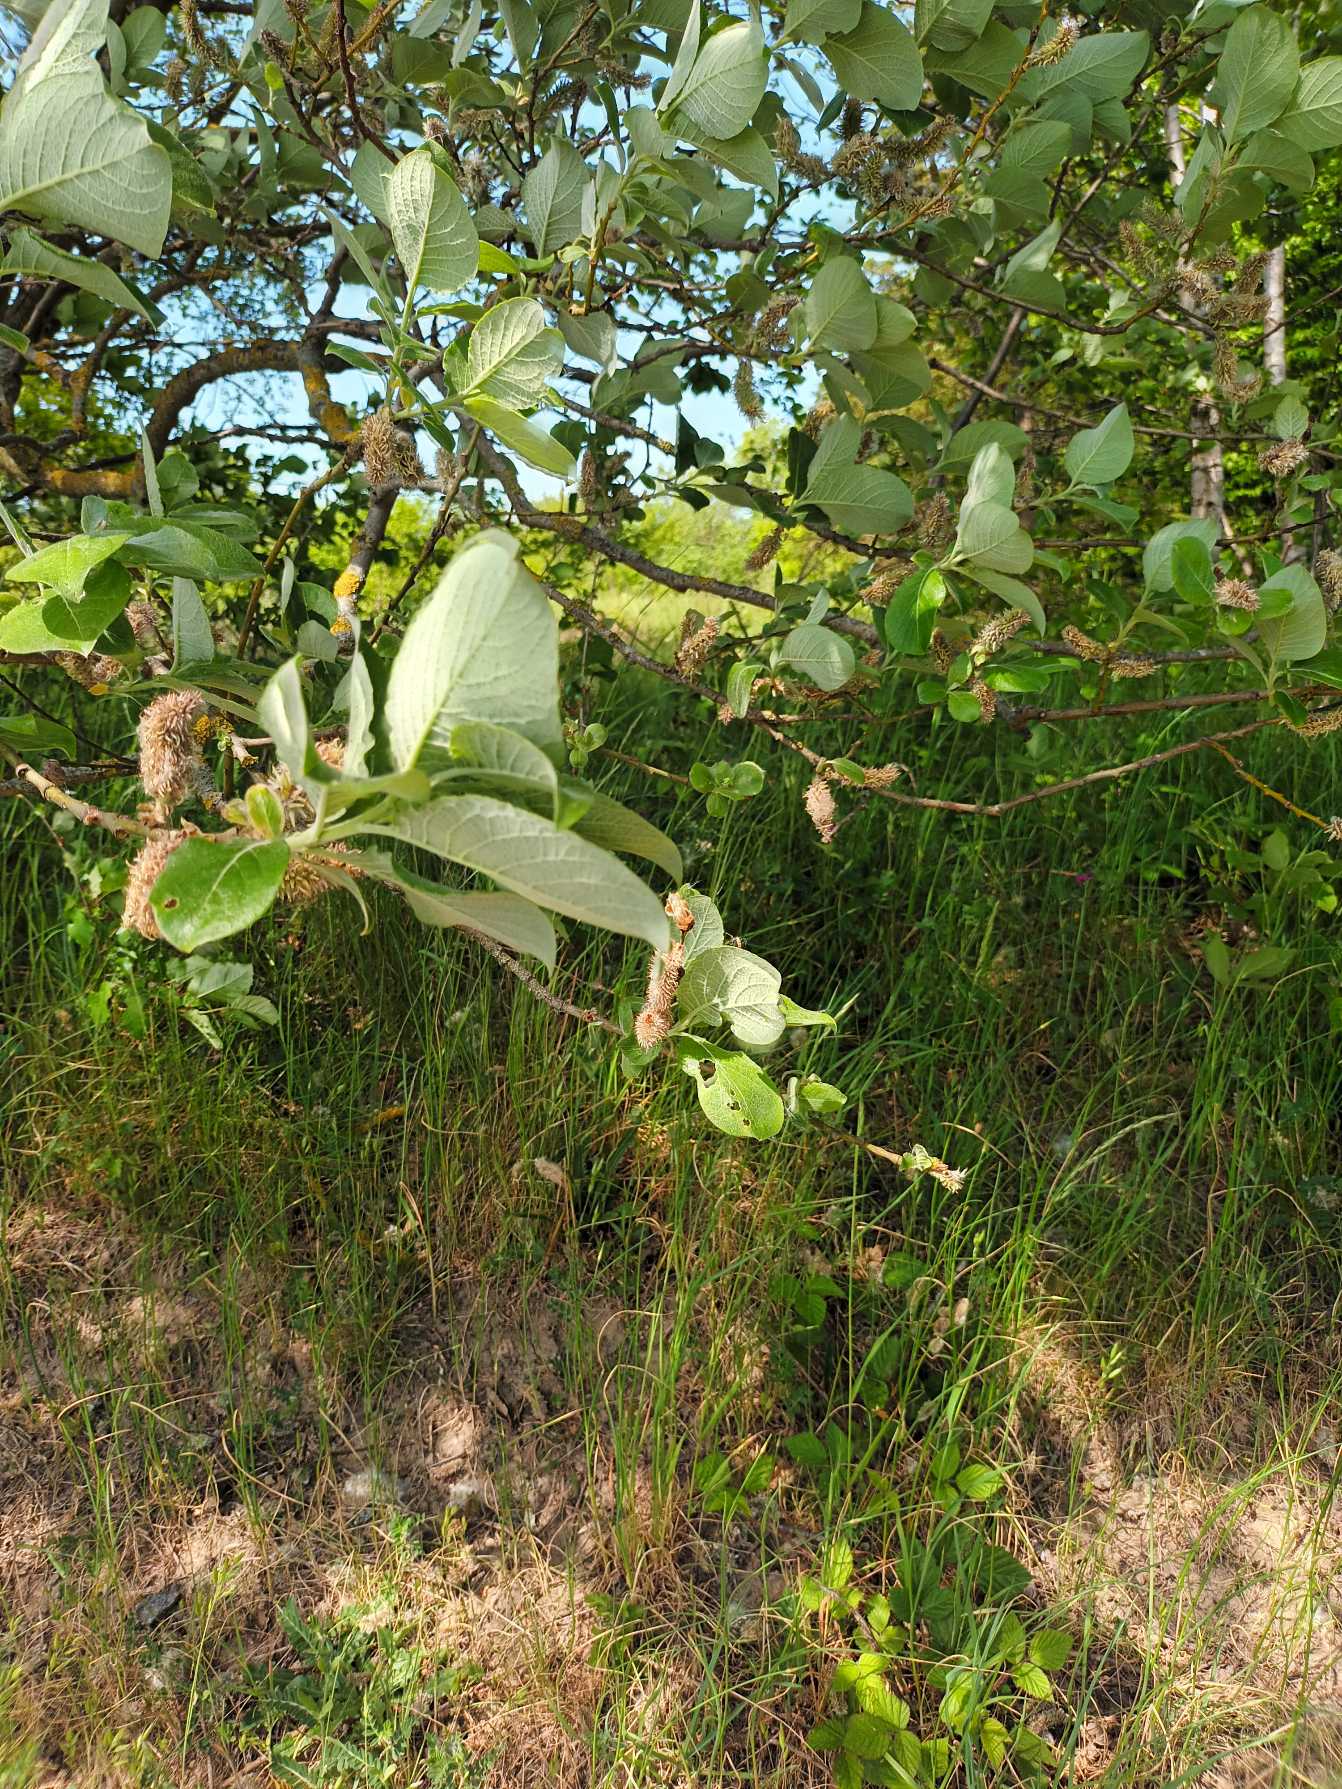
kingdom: Plantae
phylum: Tracheophyta
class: Magnoliopsida
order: Malpighiales
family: Salicaceae
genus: Salix
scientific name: Salix caprea
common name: Selje-pil
